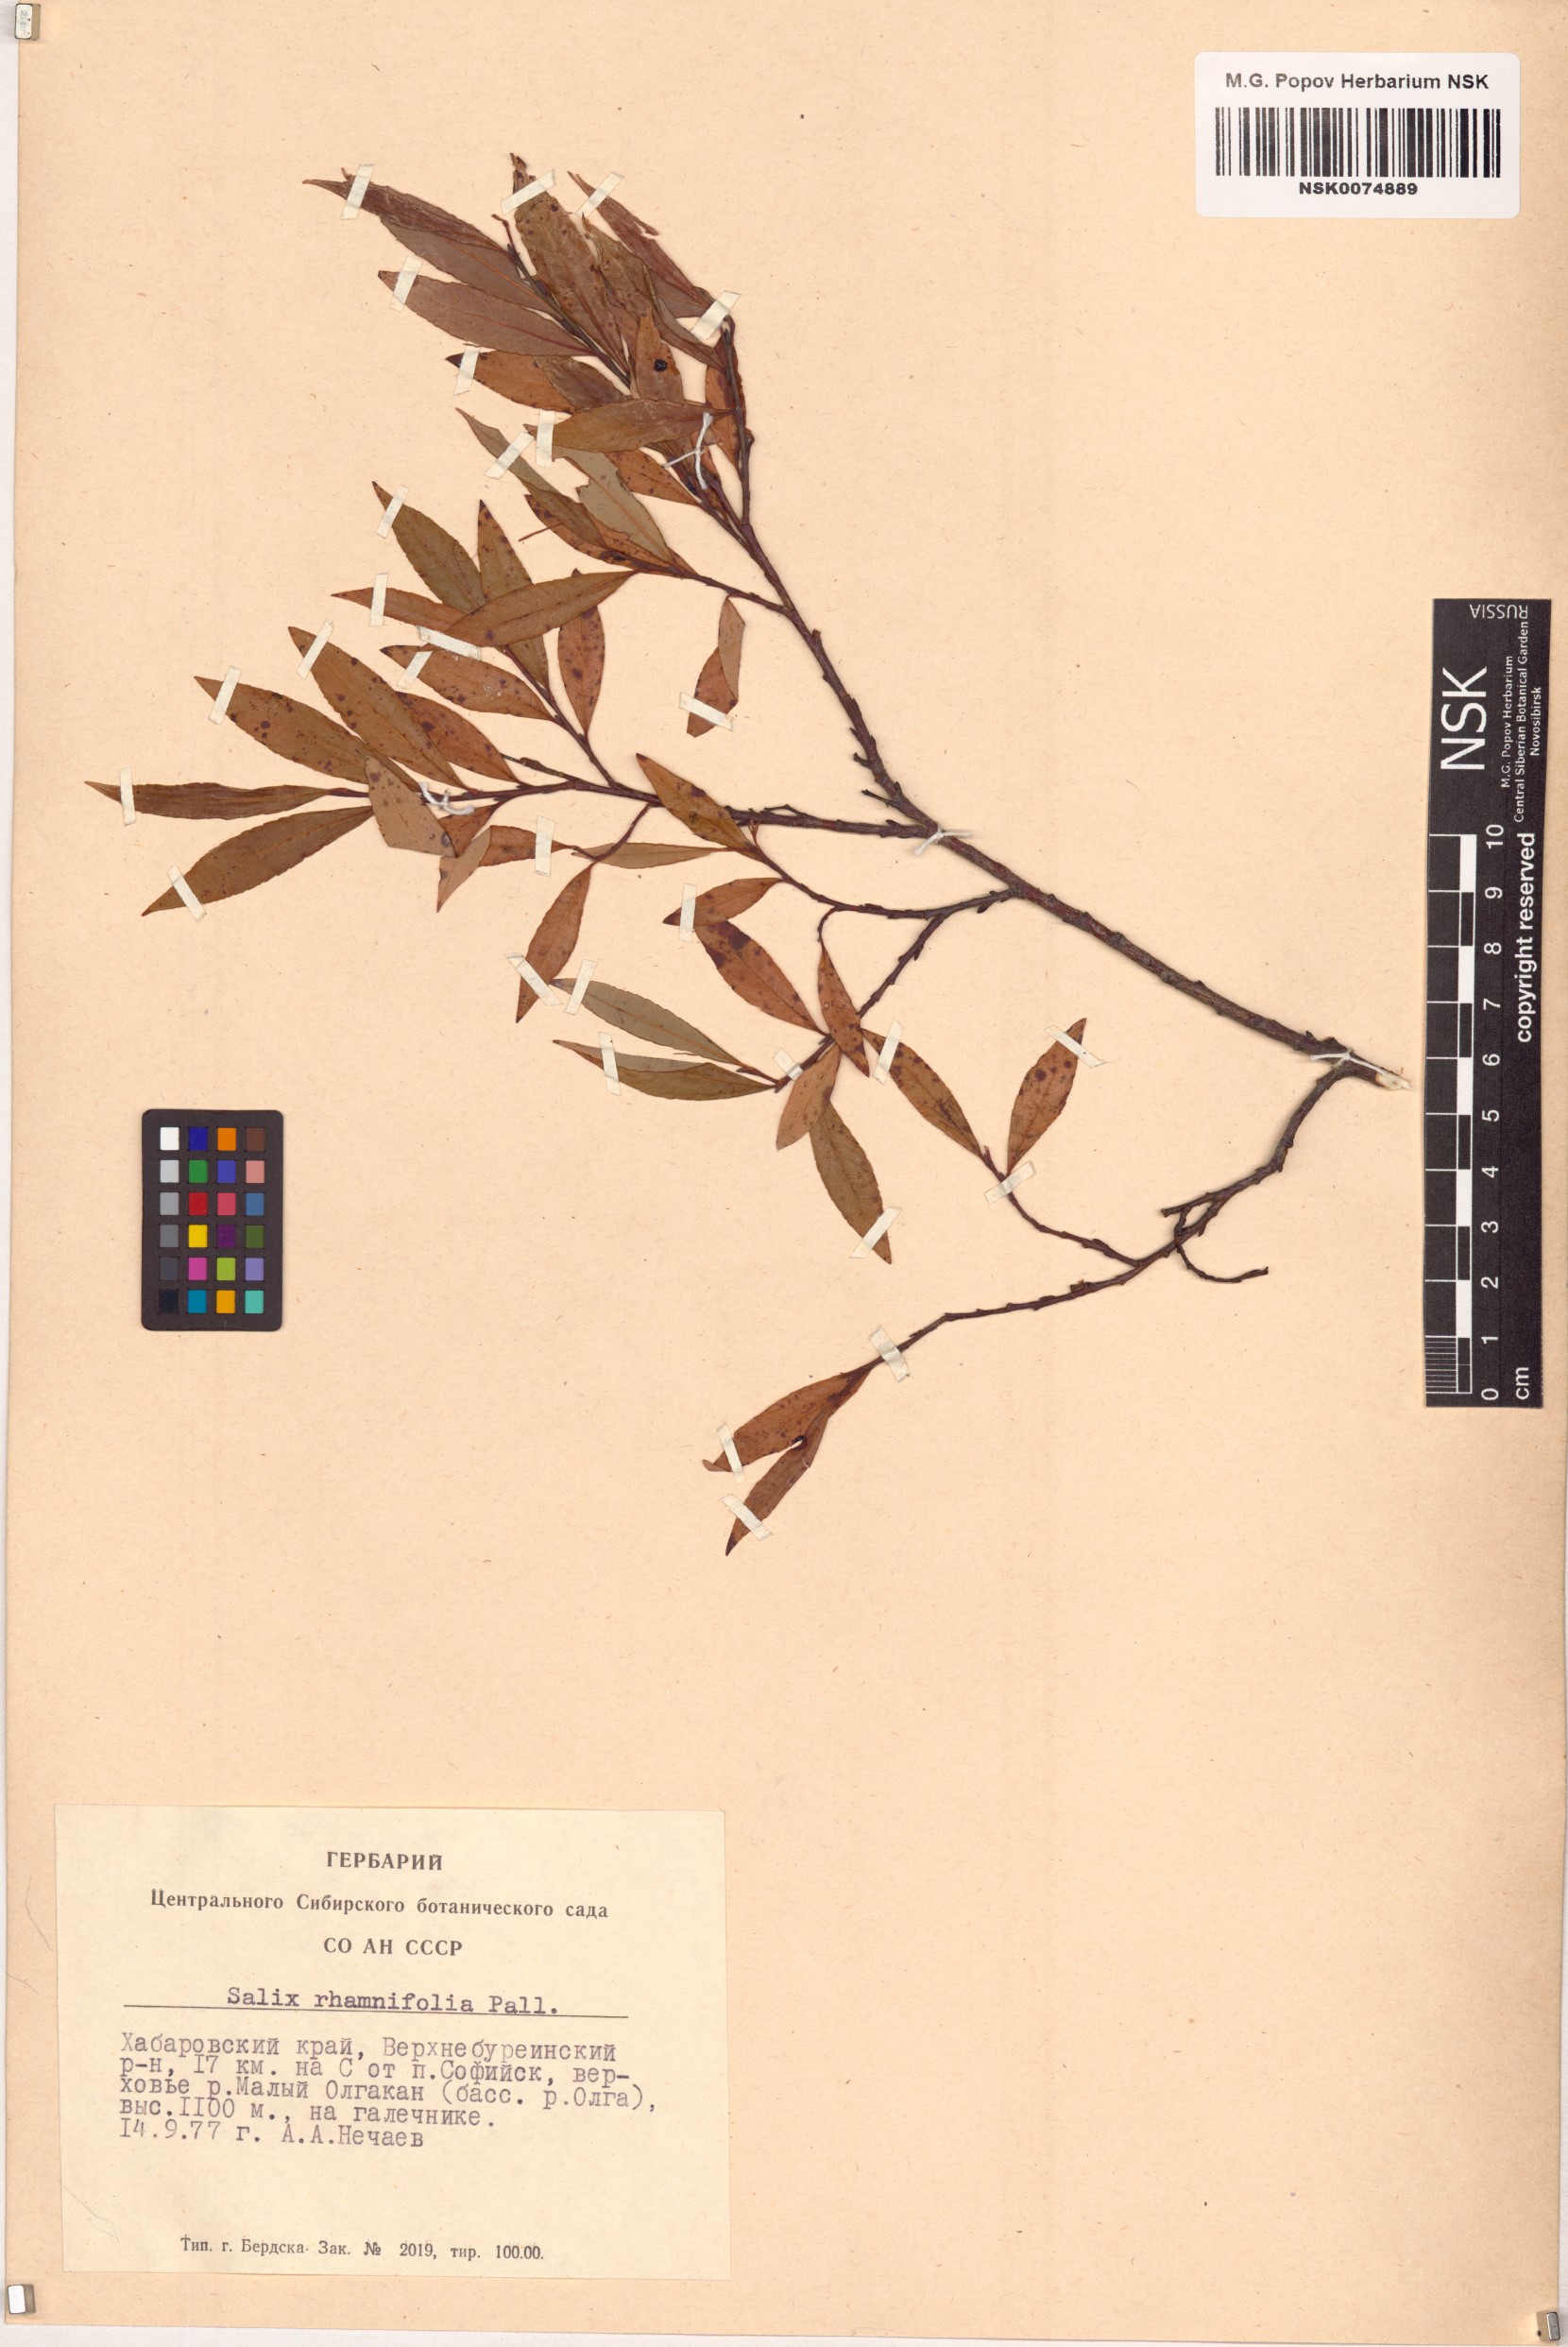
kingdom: Plantae
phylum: Tracheophyta
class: Magnoliopsida
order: Malpighiales
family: Salicaceae
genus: Salix
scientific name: Salix rhamnifolia
